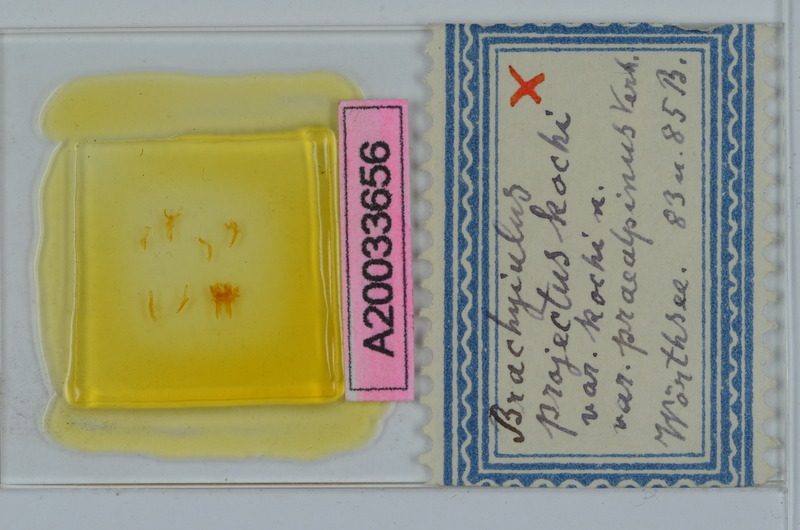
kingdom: Animalia
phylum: Arthropoda
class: Diplopoda
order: Julida
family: Julidae
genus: Megaphyllum
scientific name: Megaphyllum projectum
